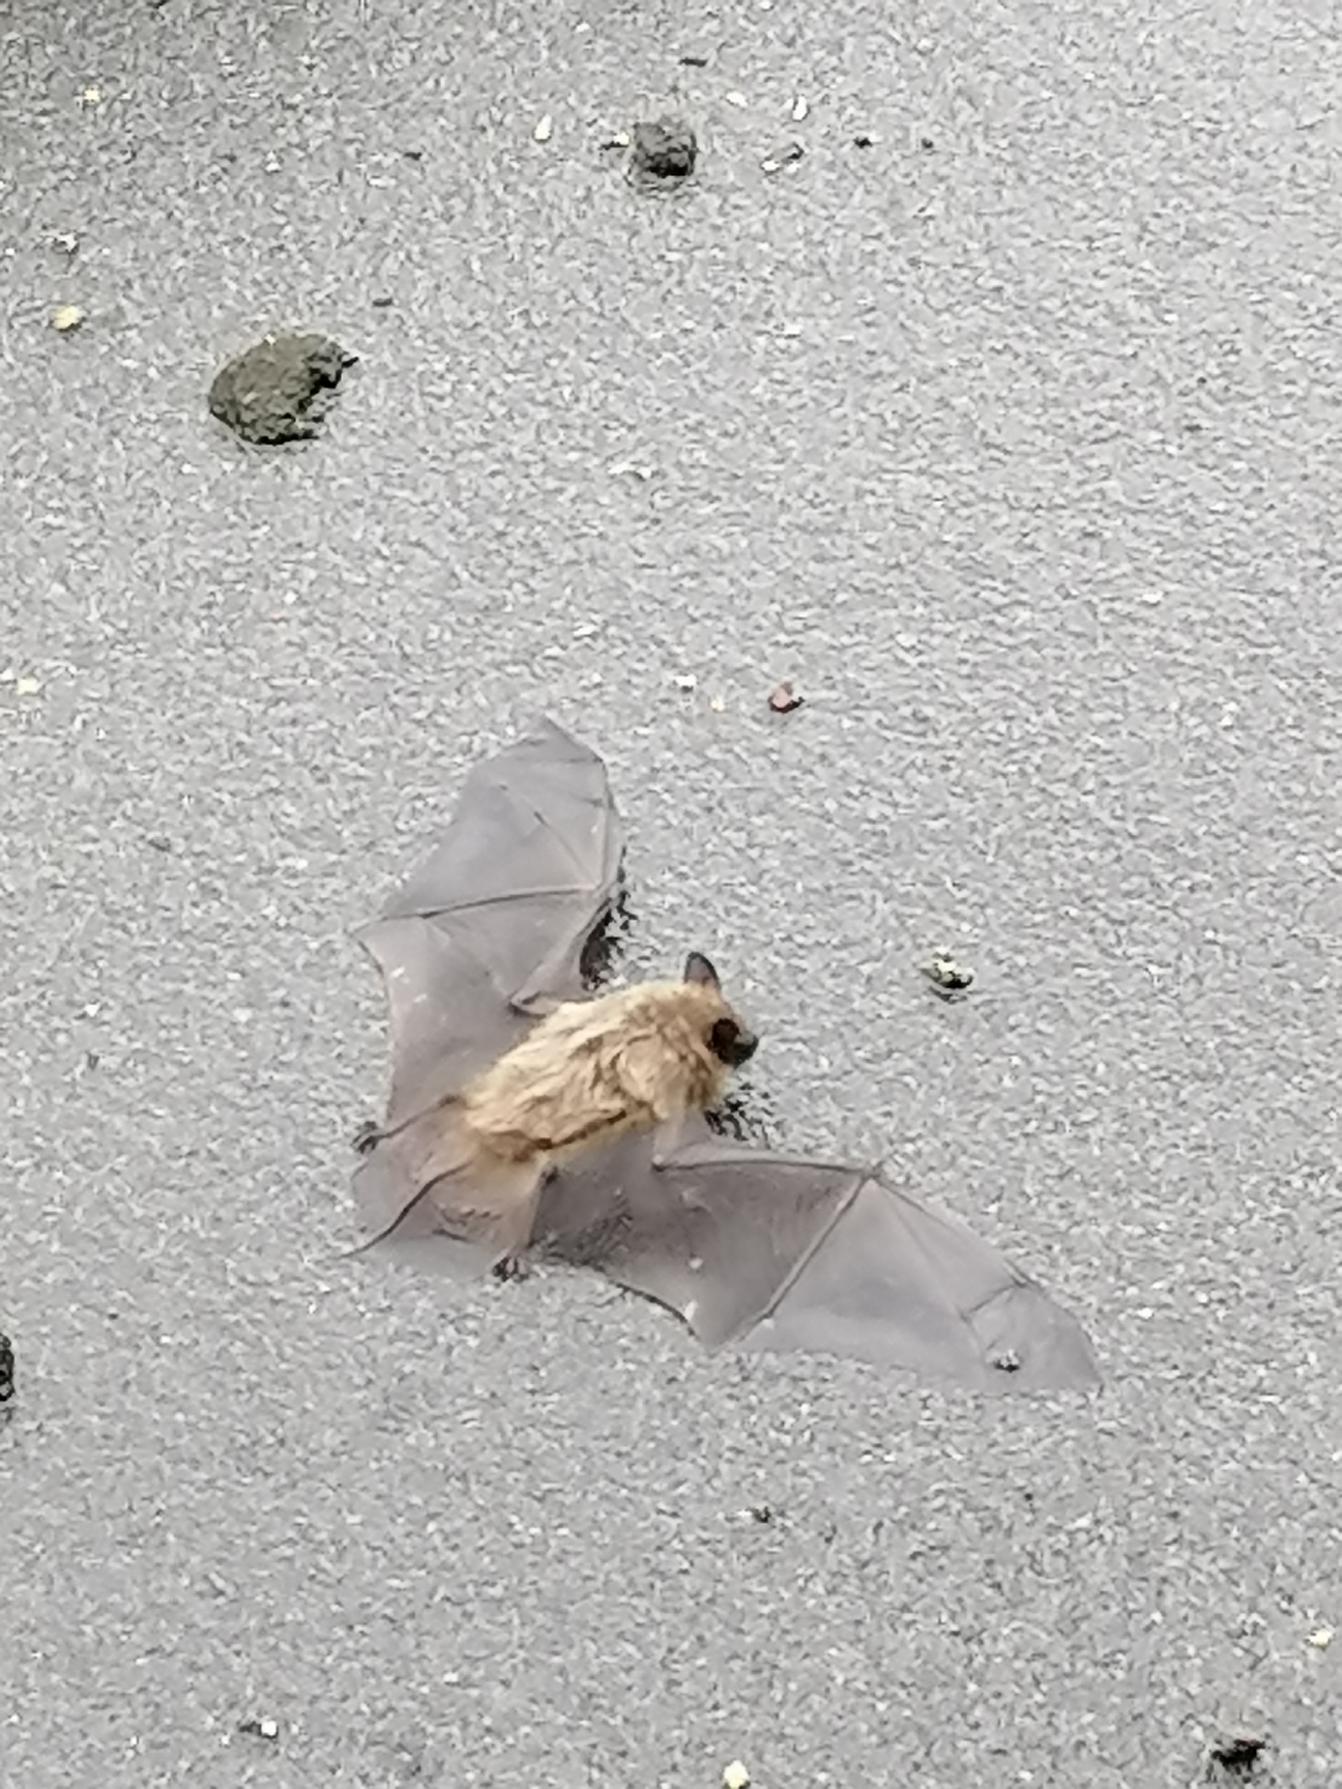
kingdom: Animalia
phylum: Chordata
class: Mammalia
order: Chiroptera
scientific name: Chiroptera
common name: Flagermus
